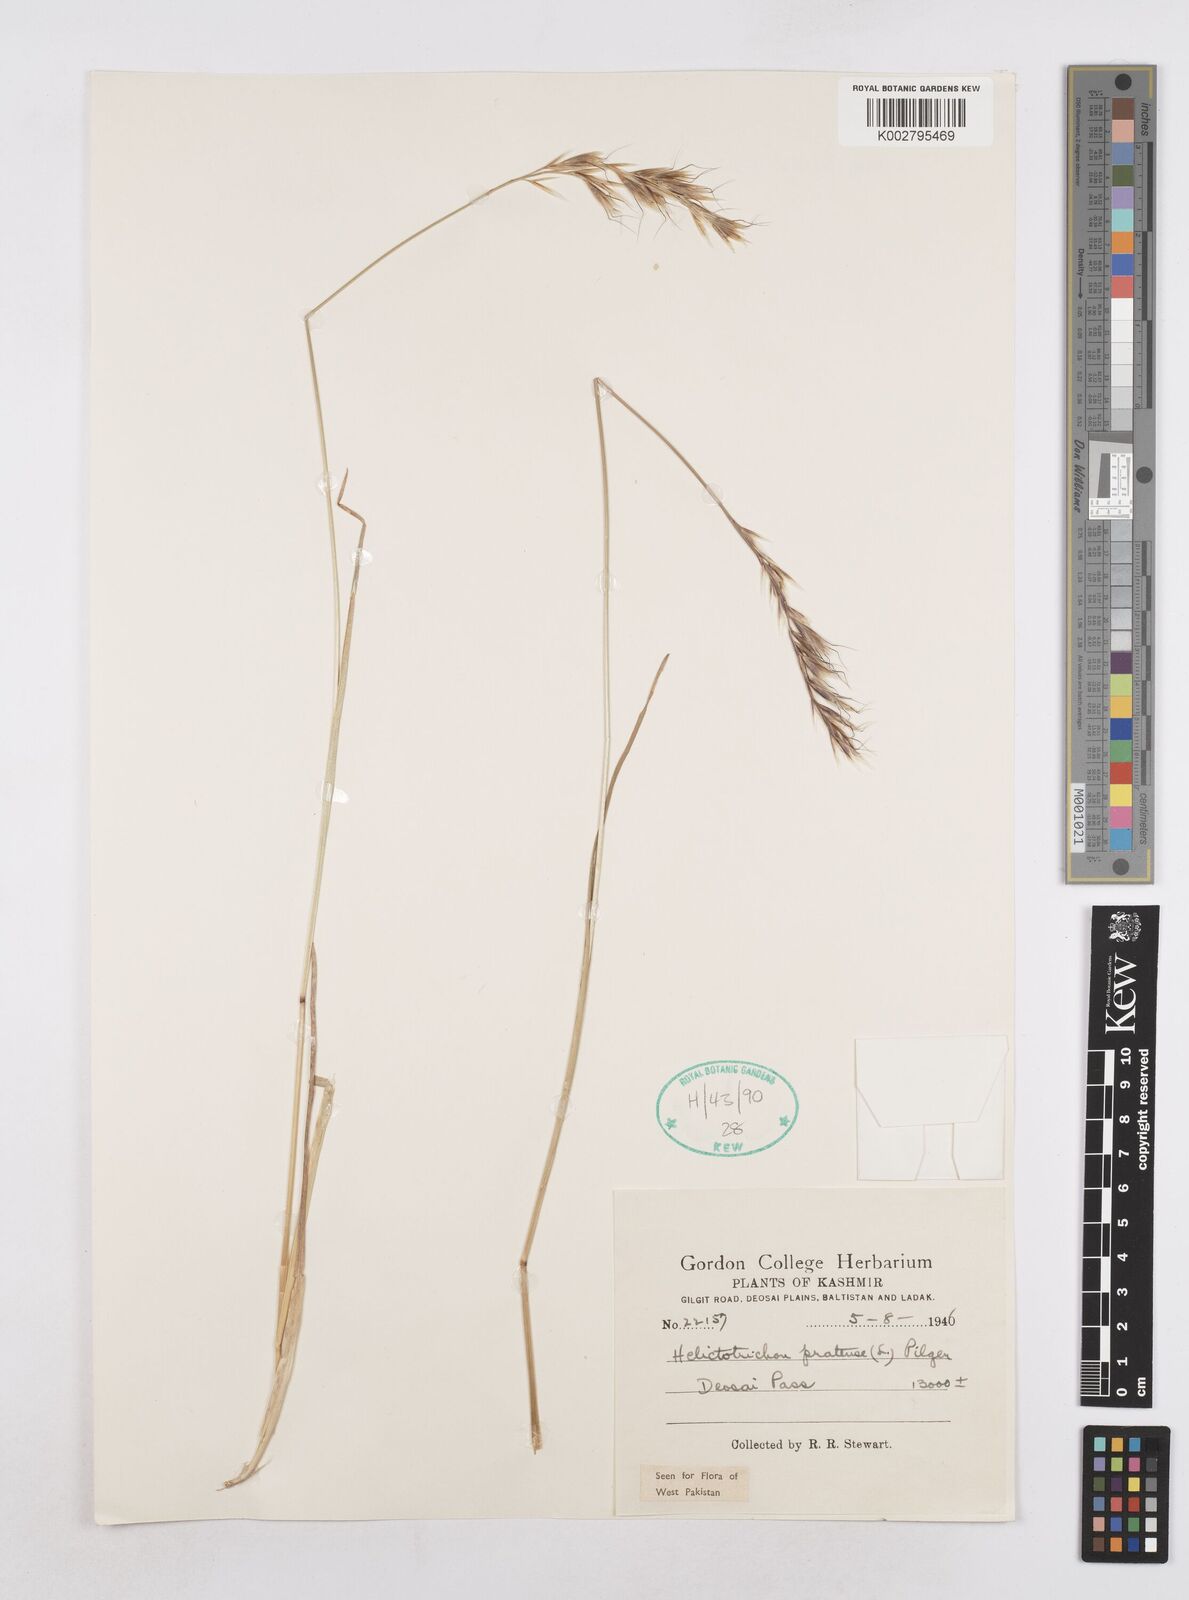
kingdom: Plantae
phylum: Tracheophyta
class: Liliopsida
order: Poales
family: Poaceae
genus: Helictochloa
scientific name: Helictochloa pratensis
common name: Meadow oat grass
